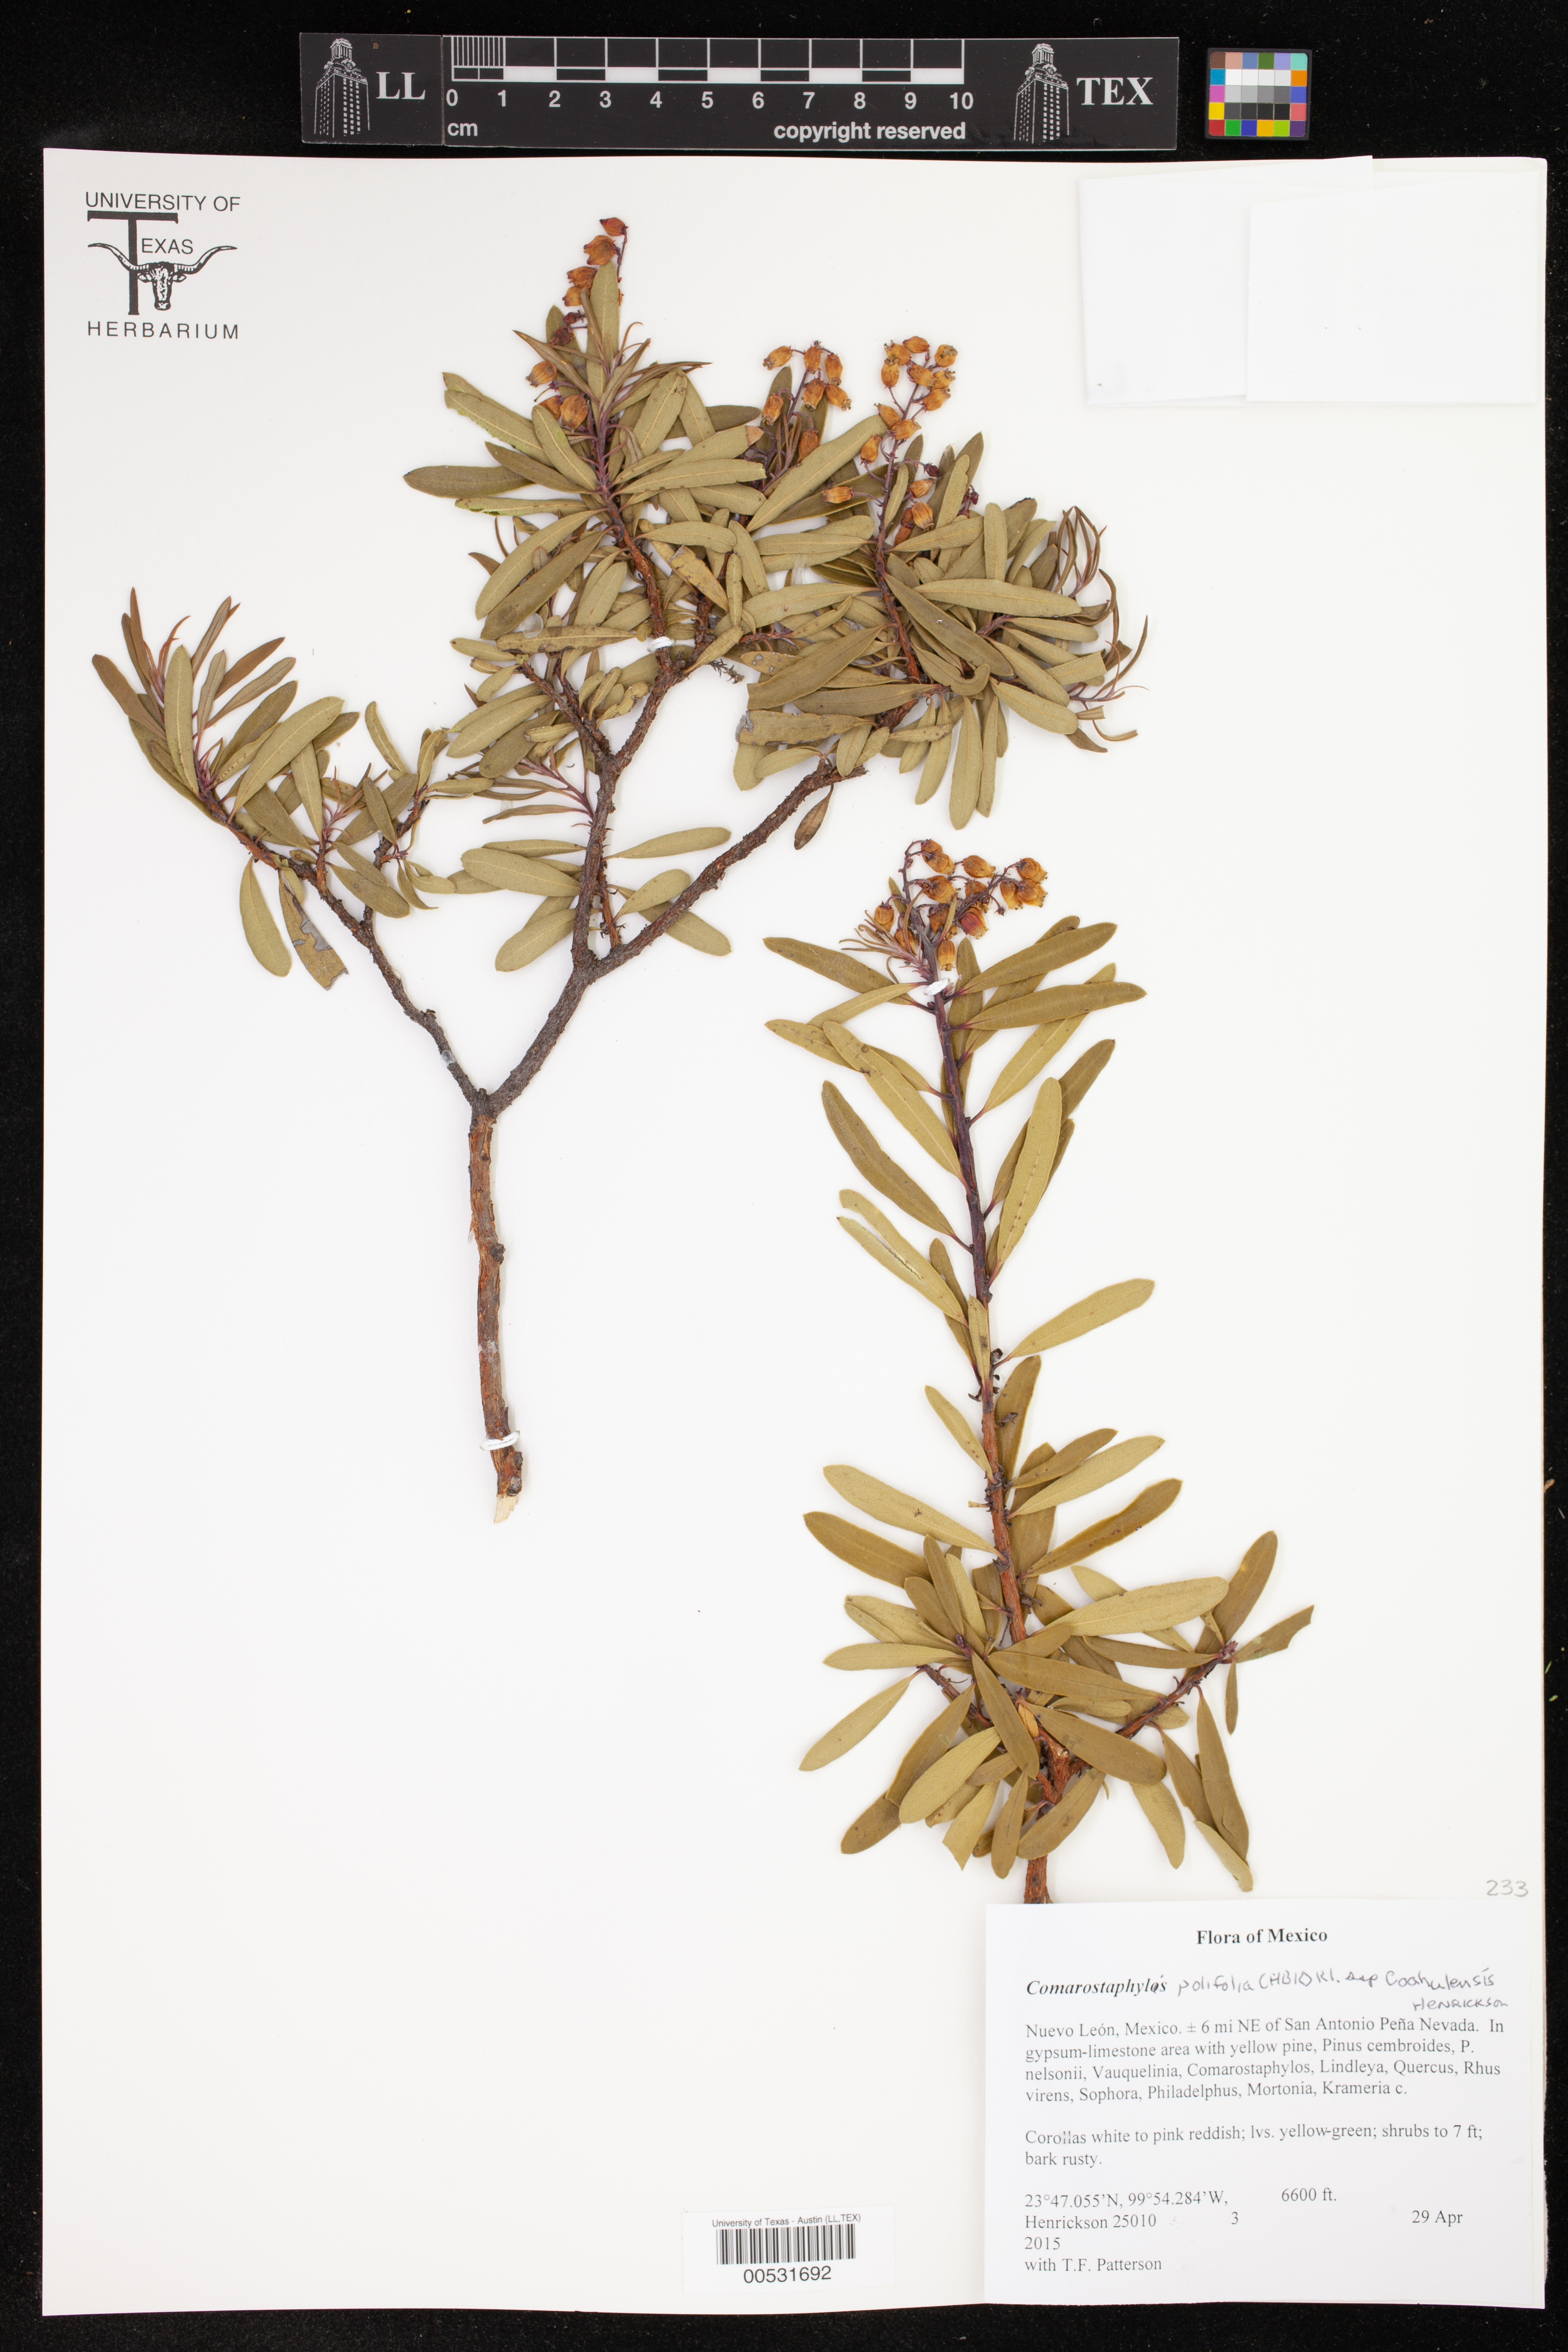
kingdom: Plantae
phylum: Tracheophyta
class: Magnoliopsida
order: Ericales
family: Ericaceae
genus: Comarostaphylis
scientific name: Comarostaphylis polifolia
